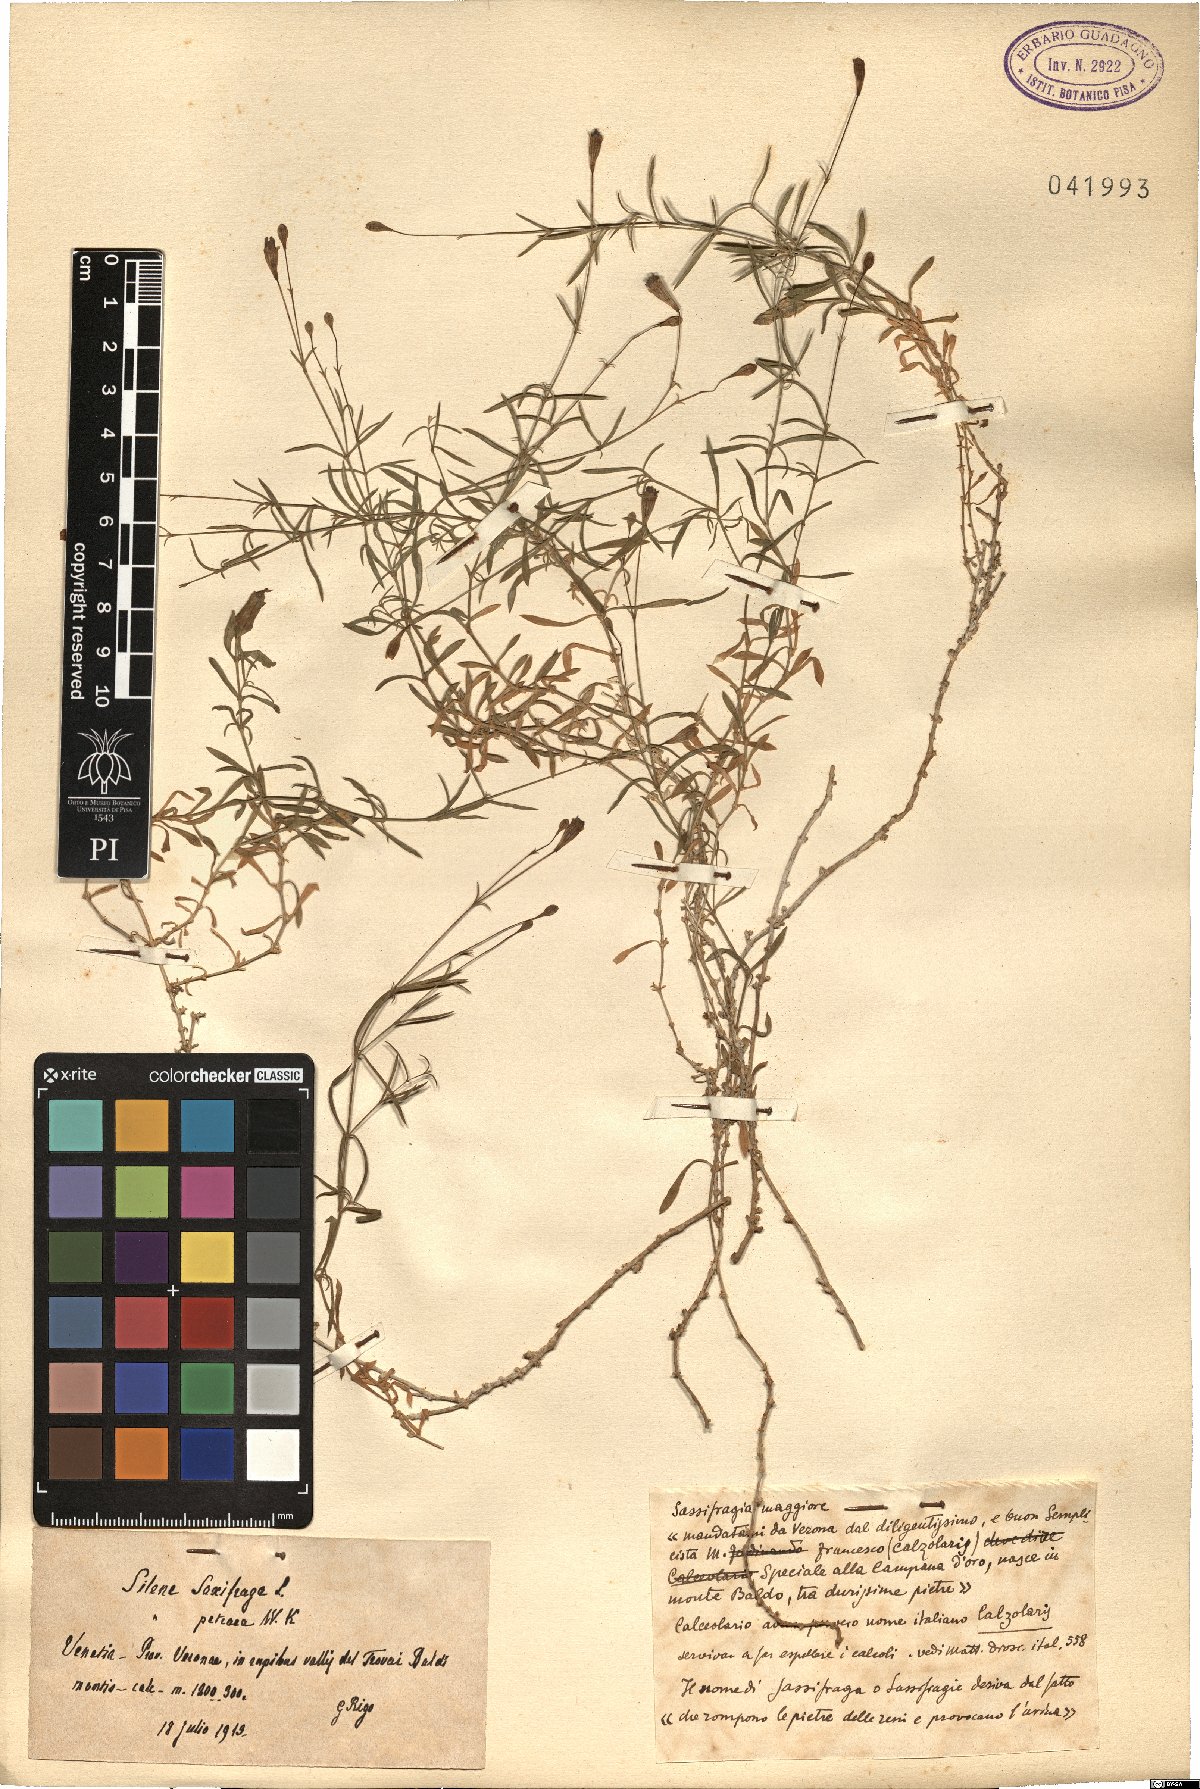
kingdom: Plantae
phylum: Tracheophyta
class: Magnoliopsida
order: Caryophyllales
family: Caryophyllaceae
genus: Silene
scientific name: Silene saxifraga
